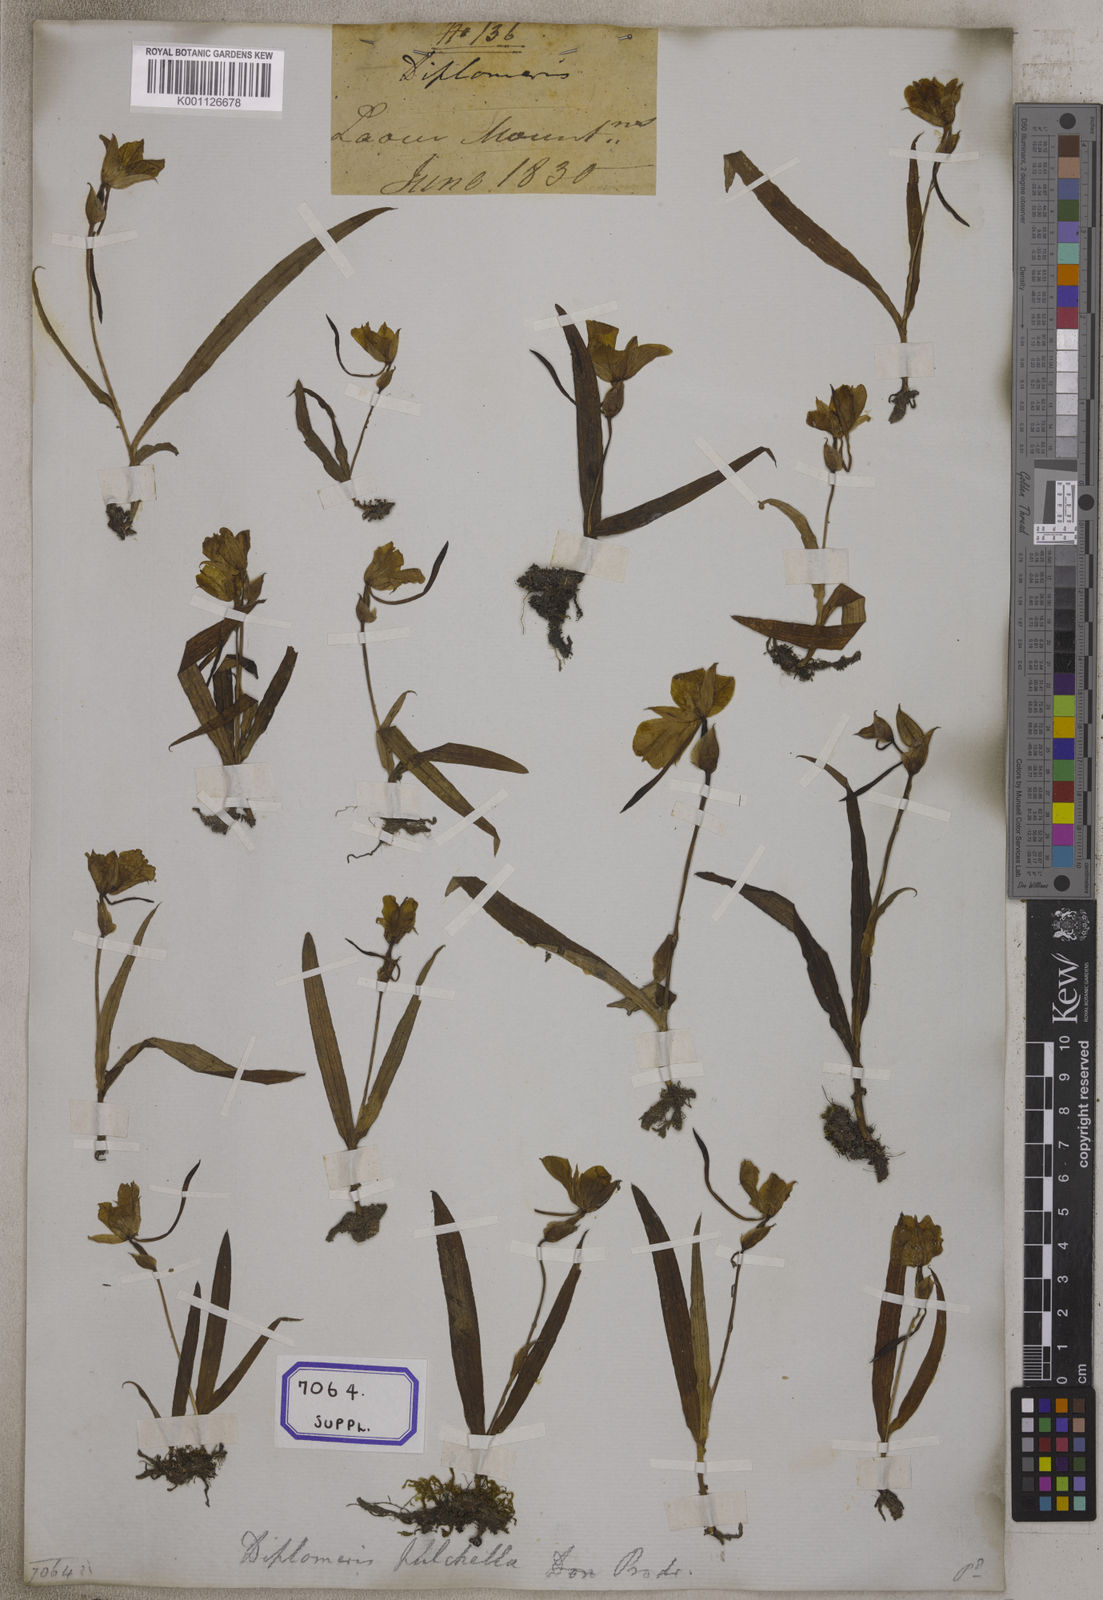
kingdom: Plantae
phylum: Tracheophyta
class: Liliopsida
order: Asparagales
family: Orchidaceae
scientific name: Orchidaceae
